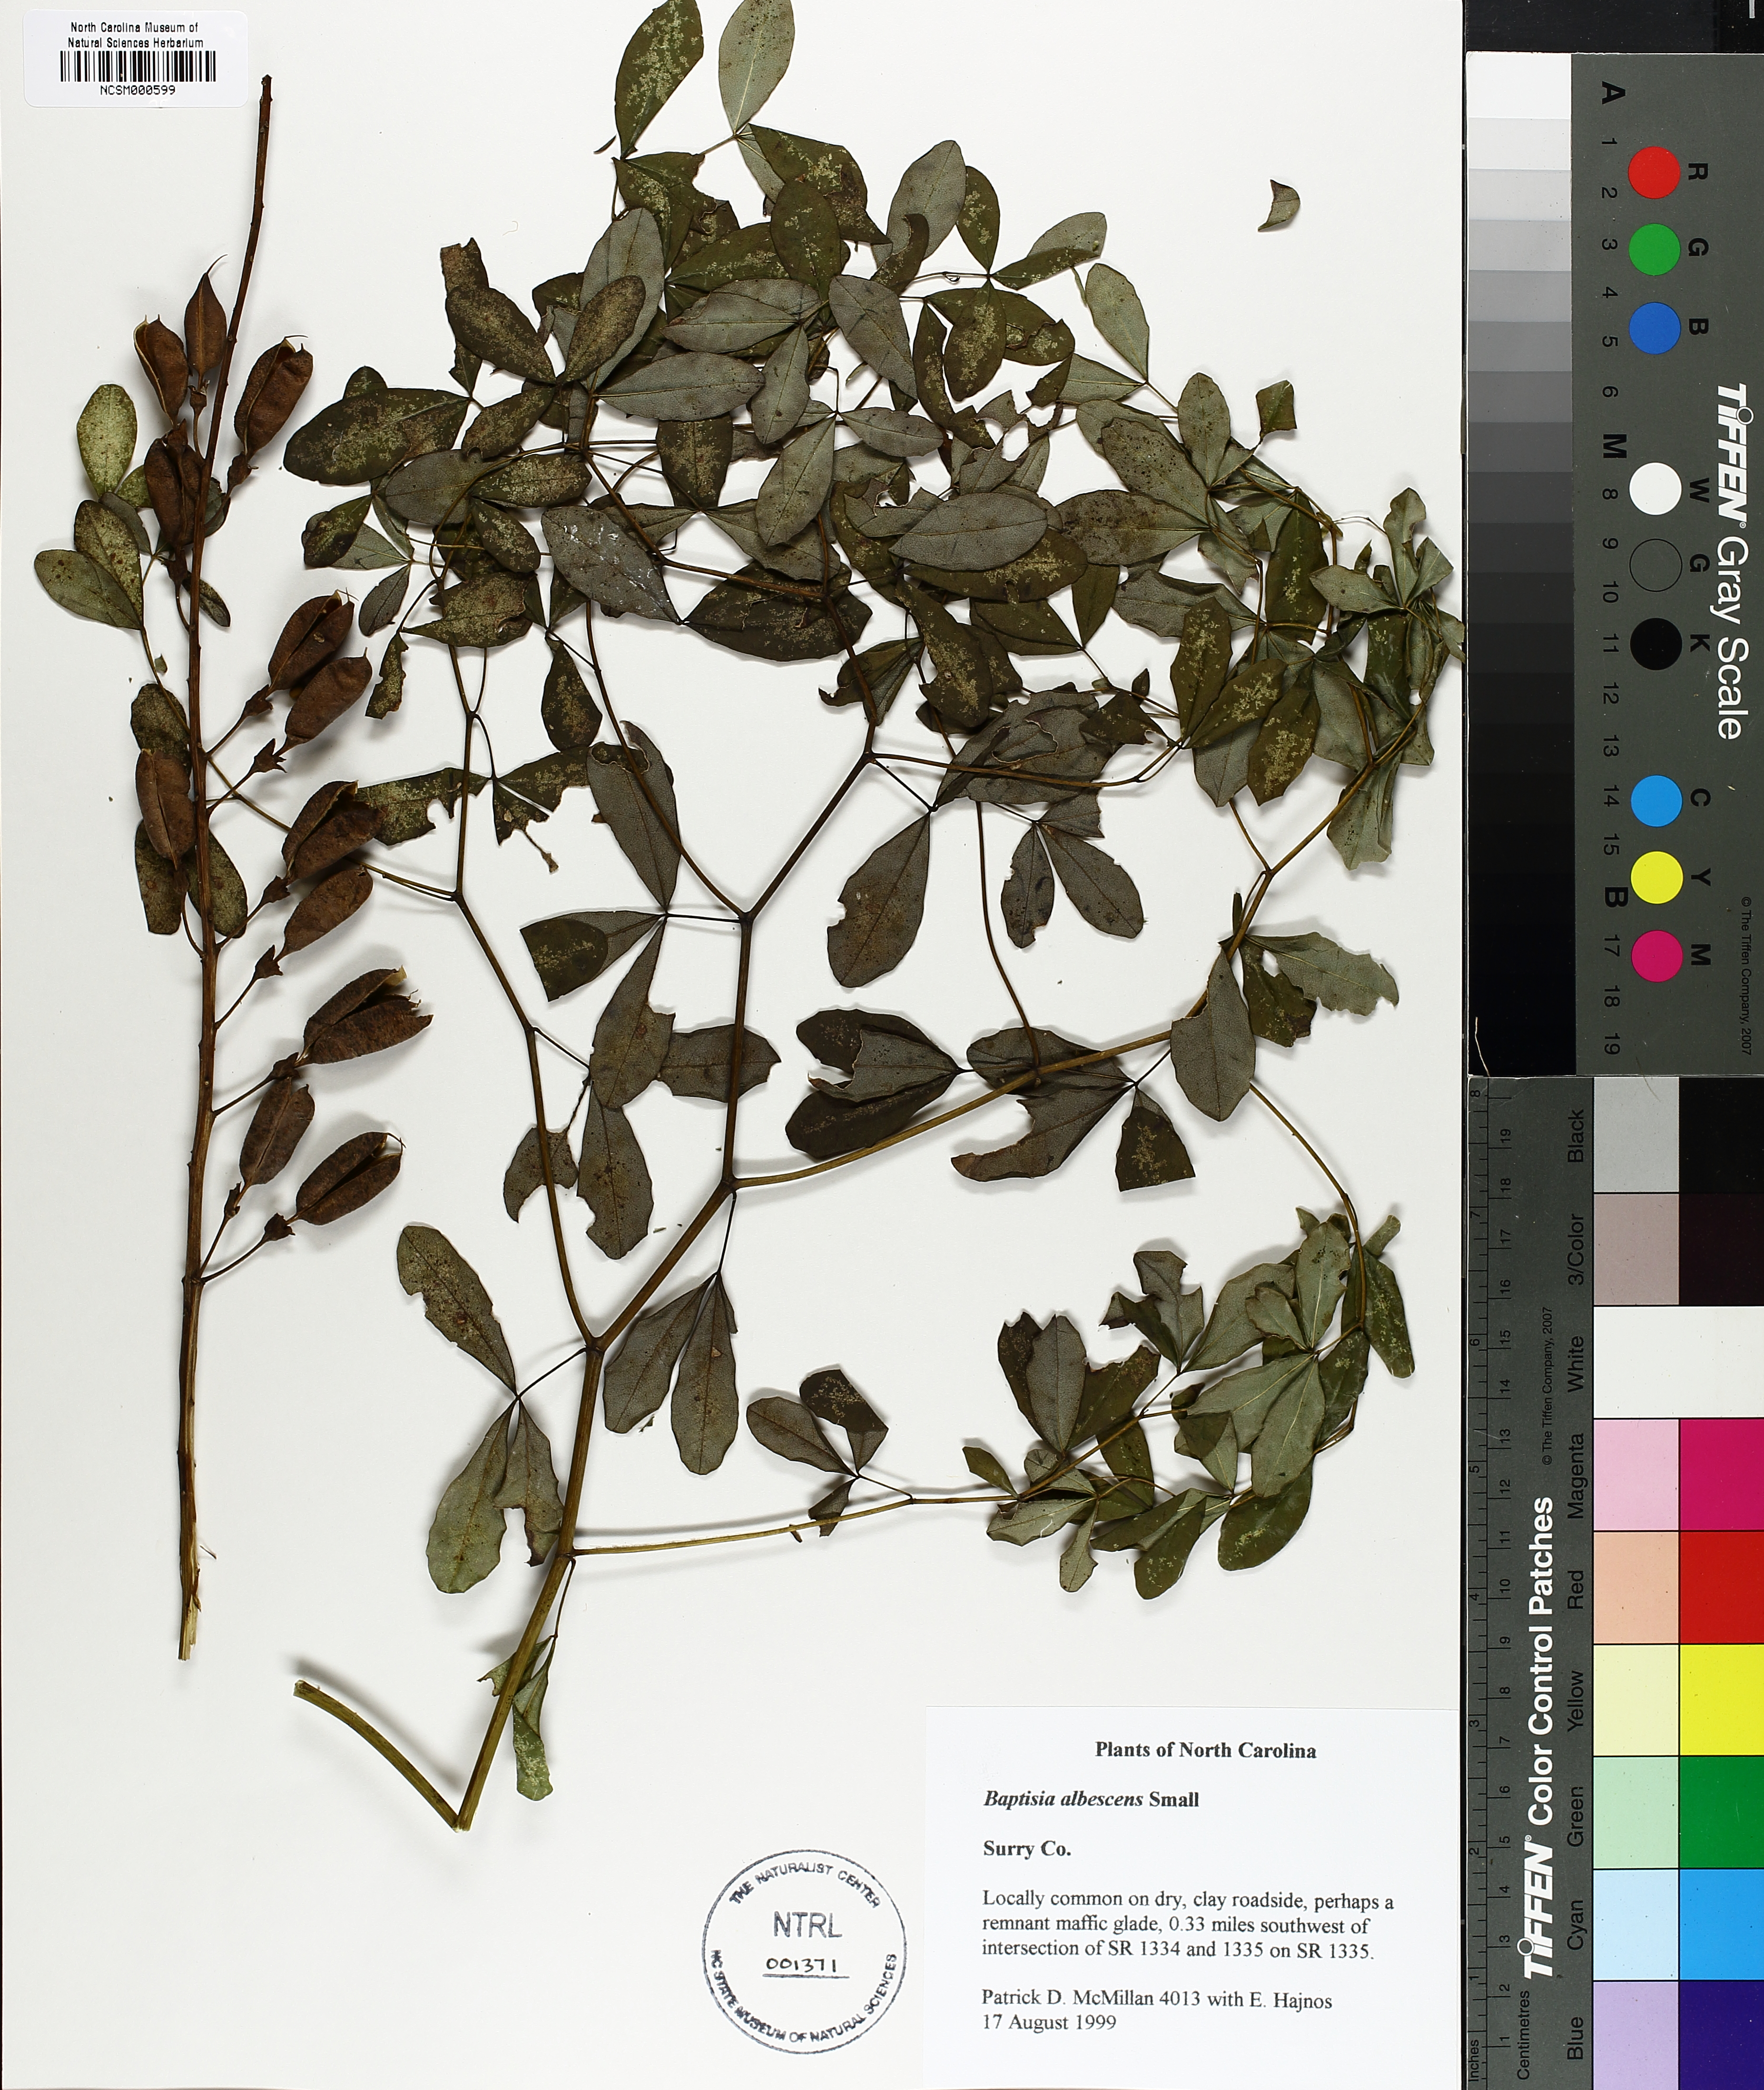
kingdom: Plantae
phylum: Tracheophyta
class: Magnoliopsida
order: Fabales
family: Fabaceae
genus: Baptisia
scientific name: Baptisia albescens
